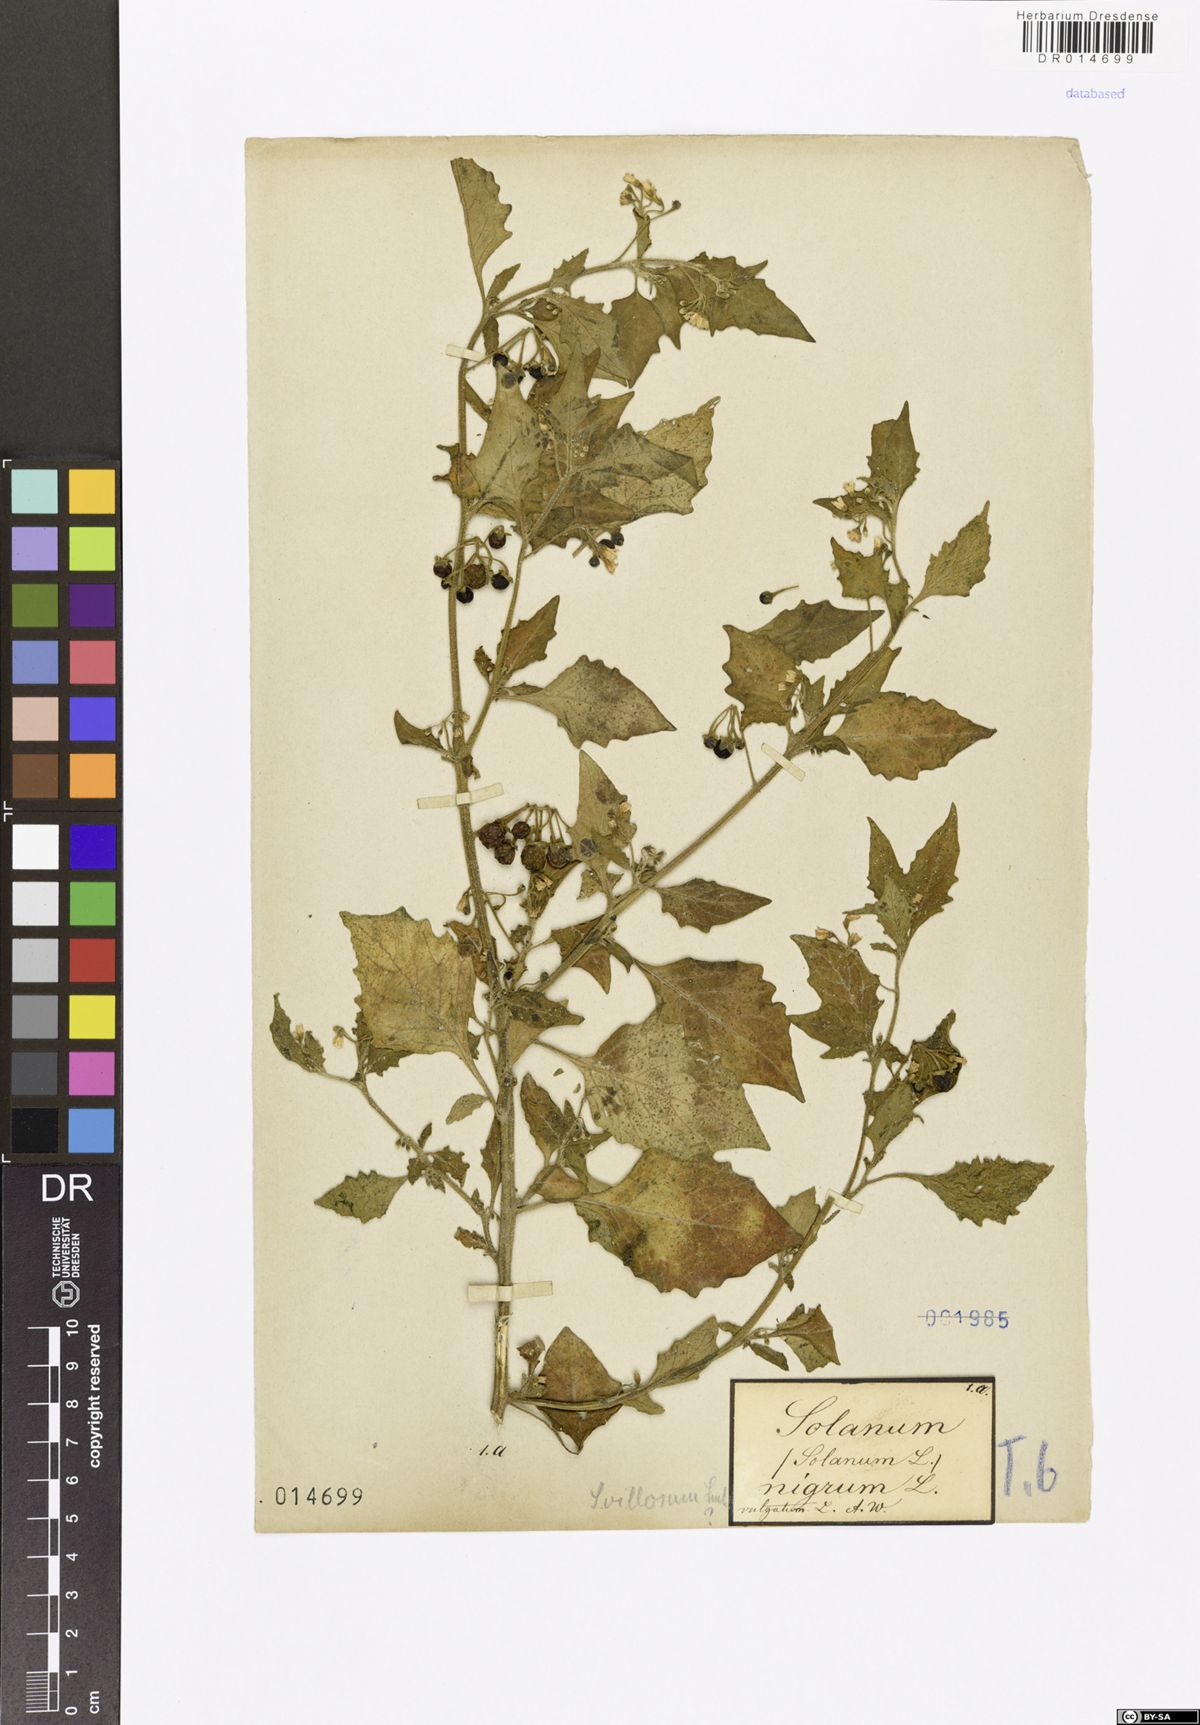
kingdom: Plantae
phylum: Tracheophyta
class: Magnoliopsida
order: Solanales
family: Solanaceae
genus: Solanum
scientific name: Solanum villosum
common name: Red nightshade
